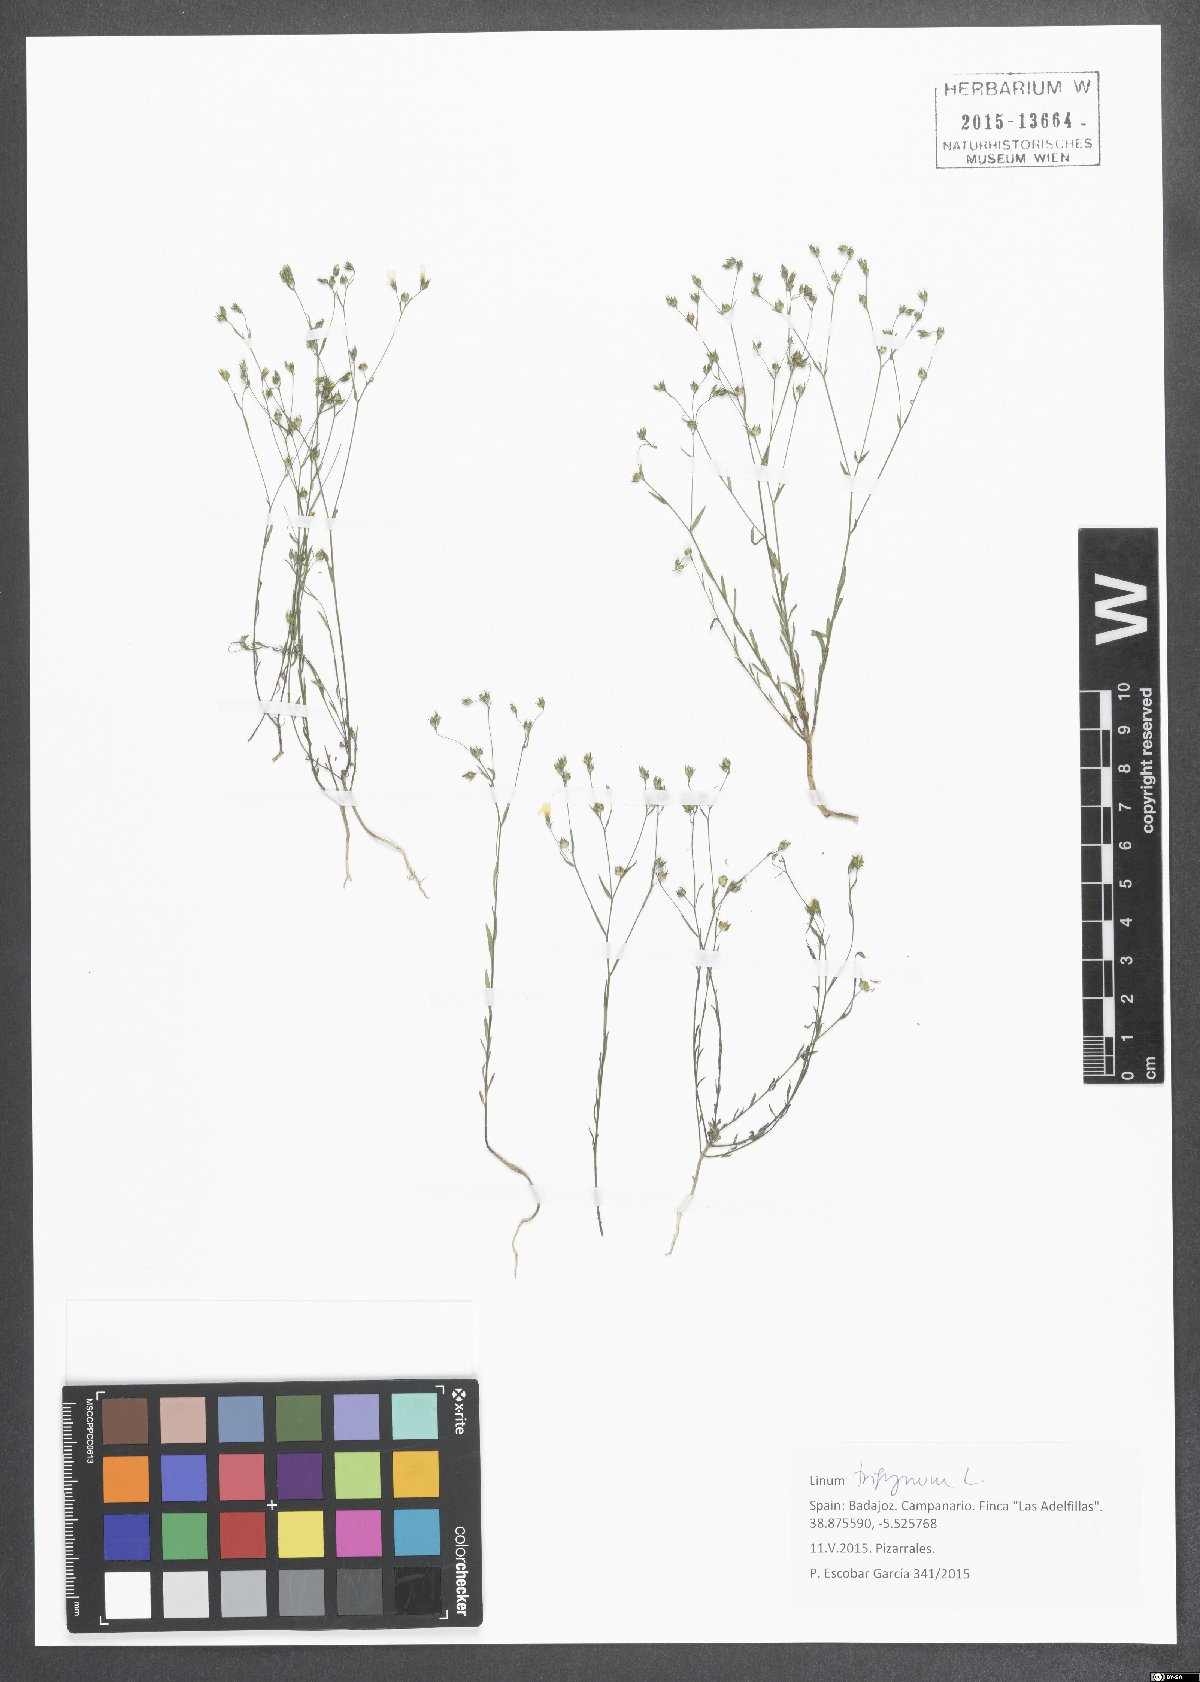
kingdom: Plantae
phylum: Tracheophyta
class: Magnoliopsida
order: Malpighiales
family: Linaceae
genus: Linum
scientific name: Linum trigynum
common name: French flax
